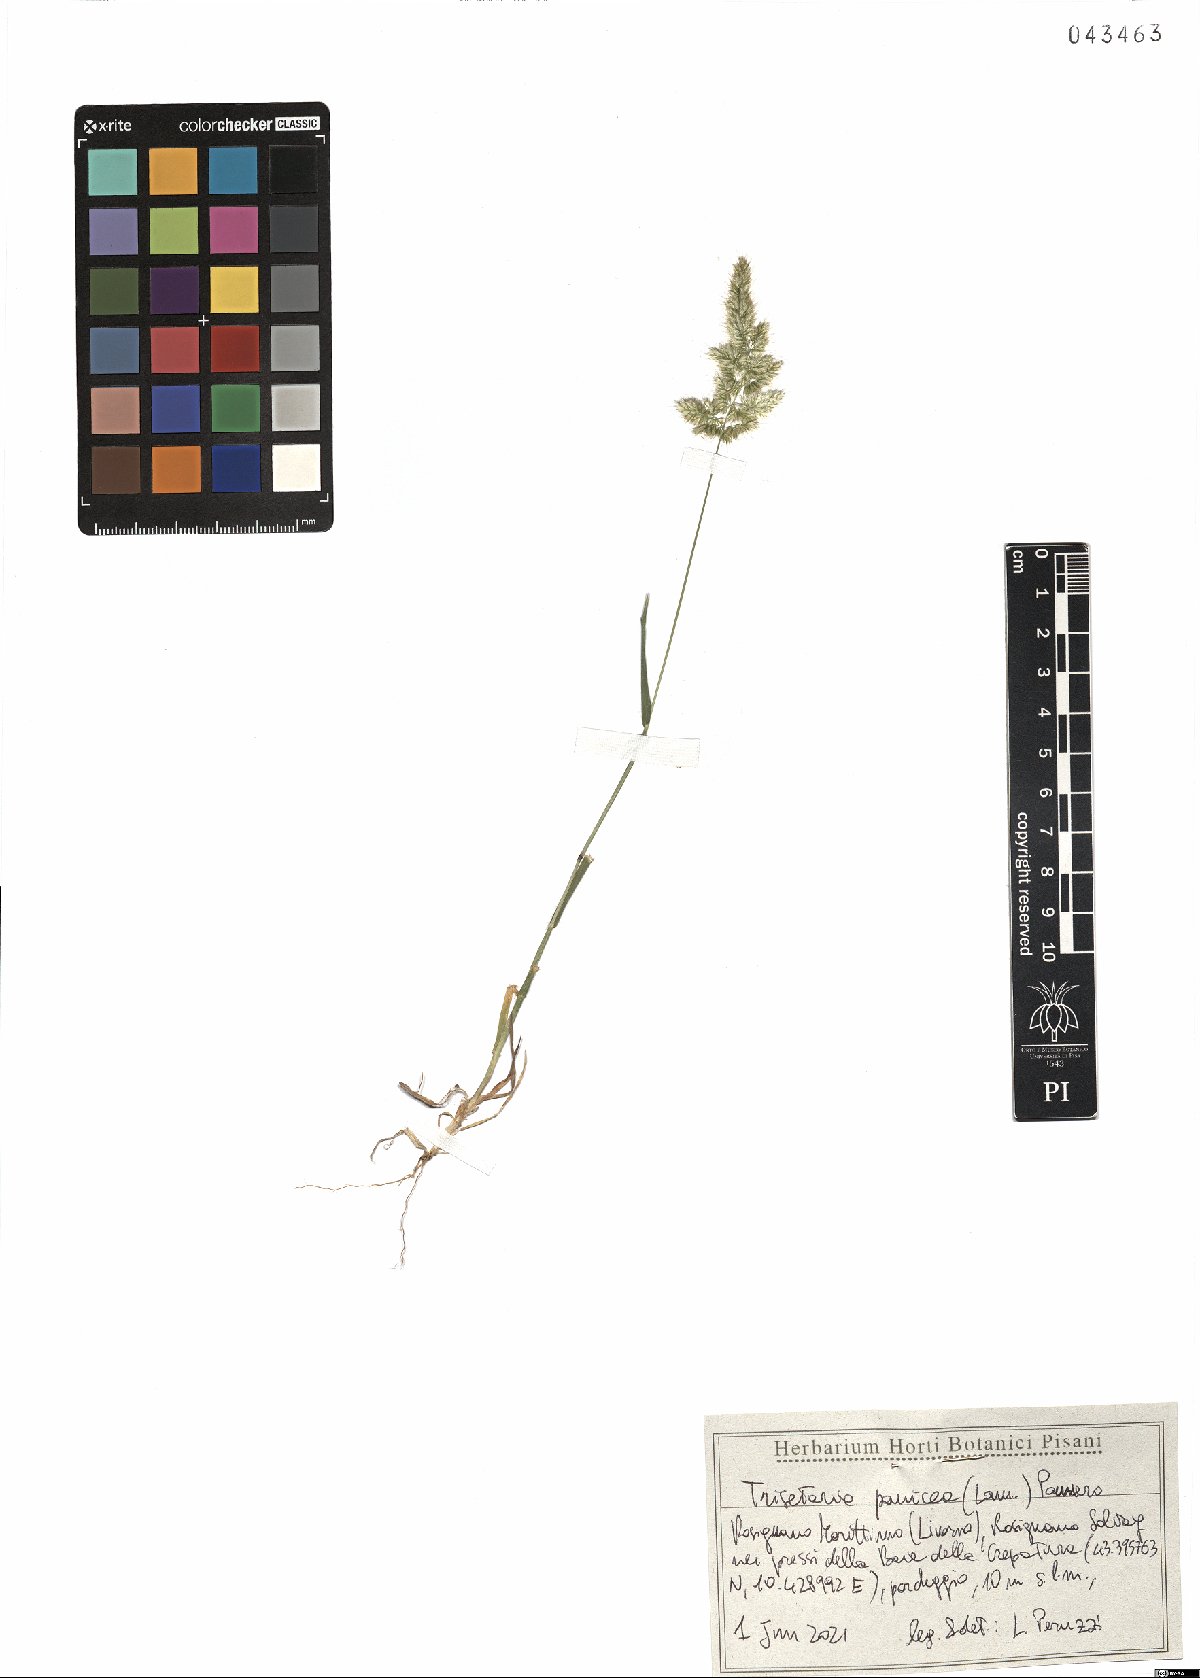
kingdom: Plantae
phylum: Tracheophyta
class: Liliopsida
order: Poales
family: Poaceae
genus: Trisetaria
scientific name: Trisetaria panicea
